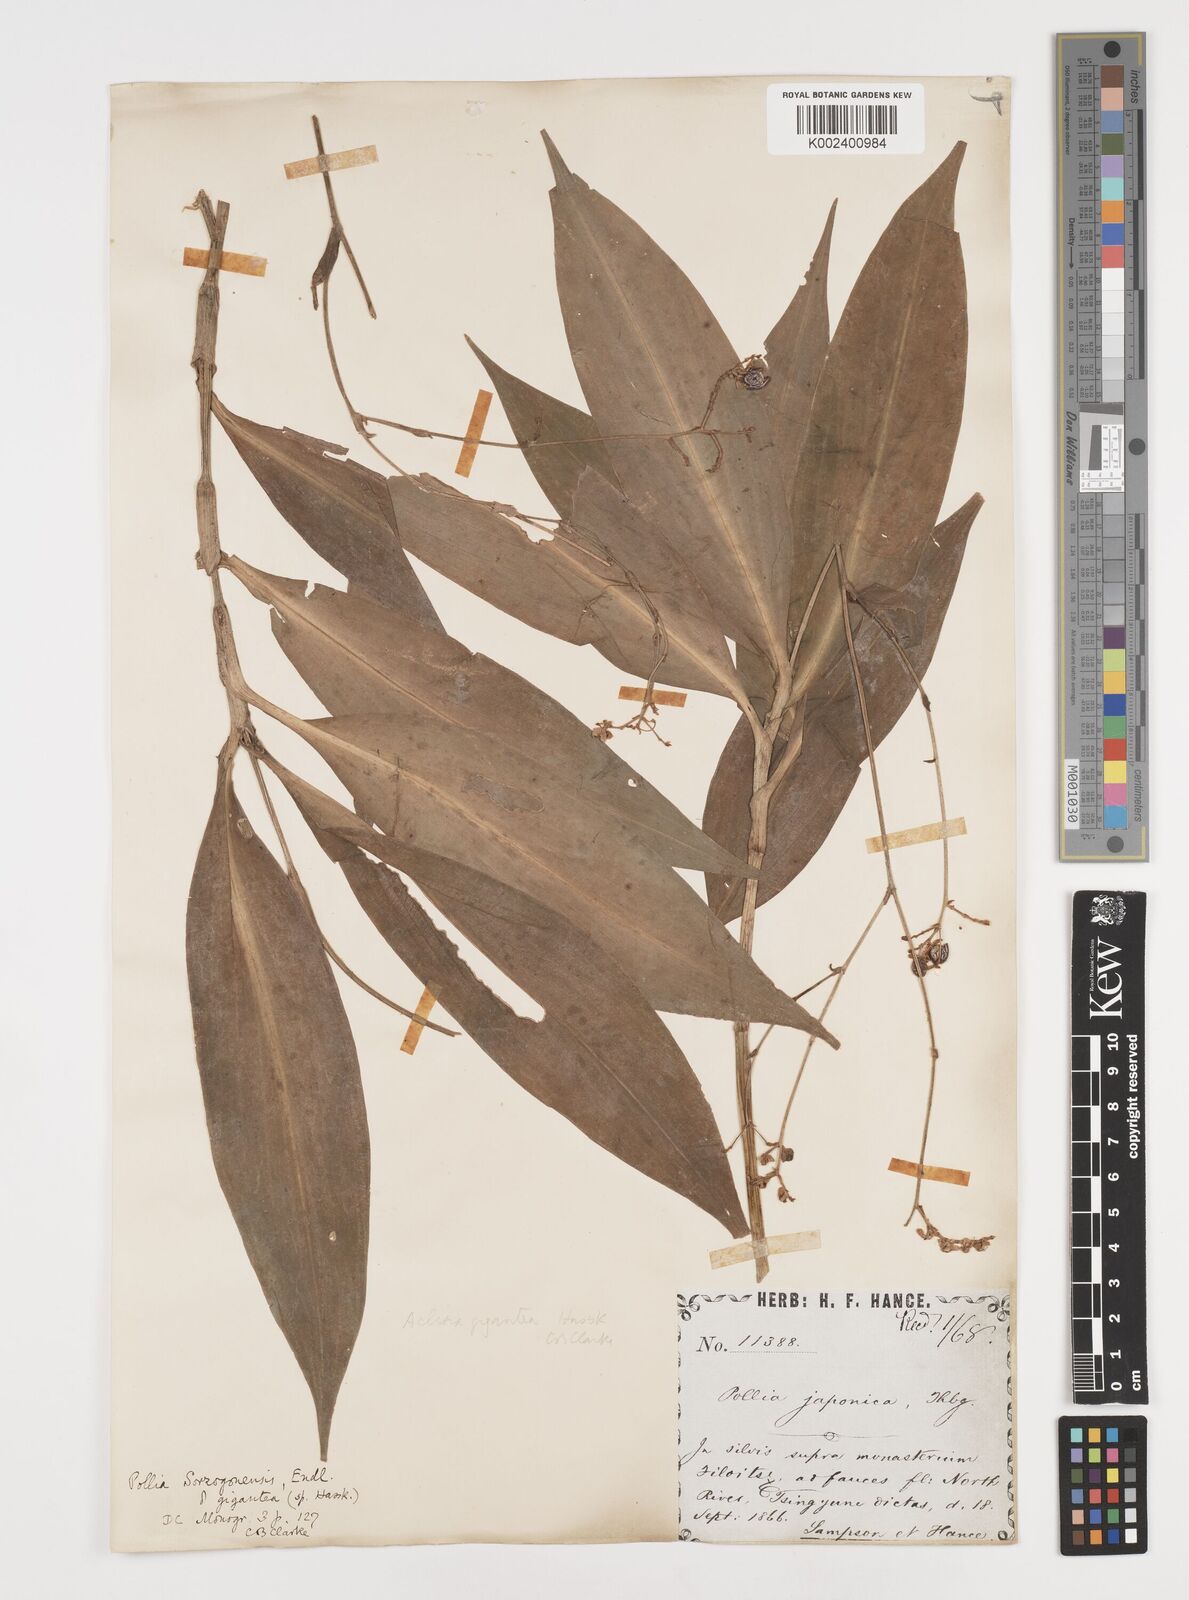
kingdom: Plantae
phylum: Tracheophyta
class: Liliopsida
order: Commelinales
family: Commelinaceae
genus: Pollia
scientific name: Pollia secundiflora
